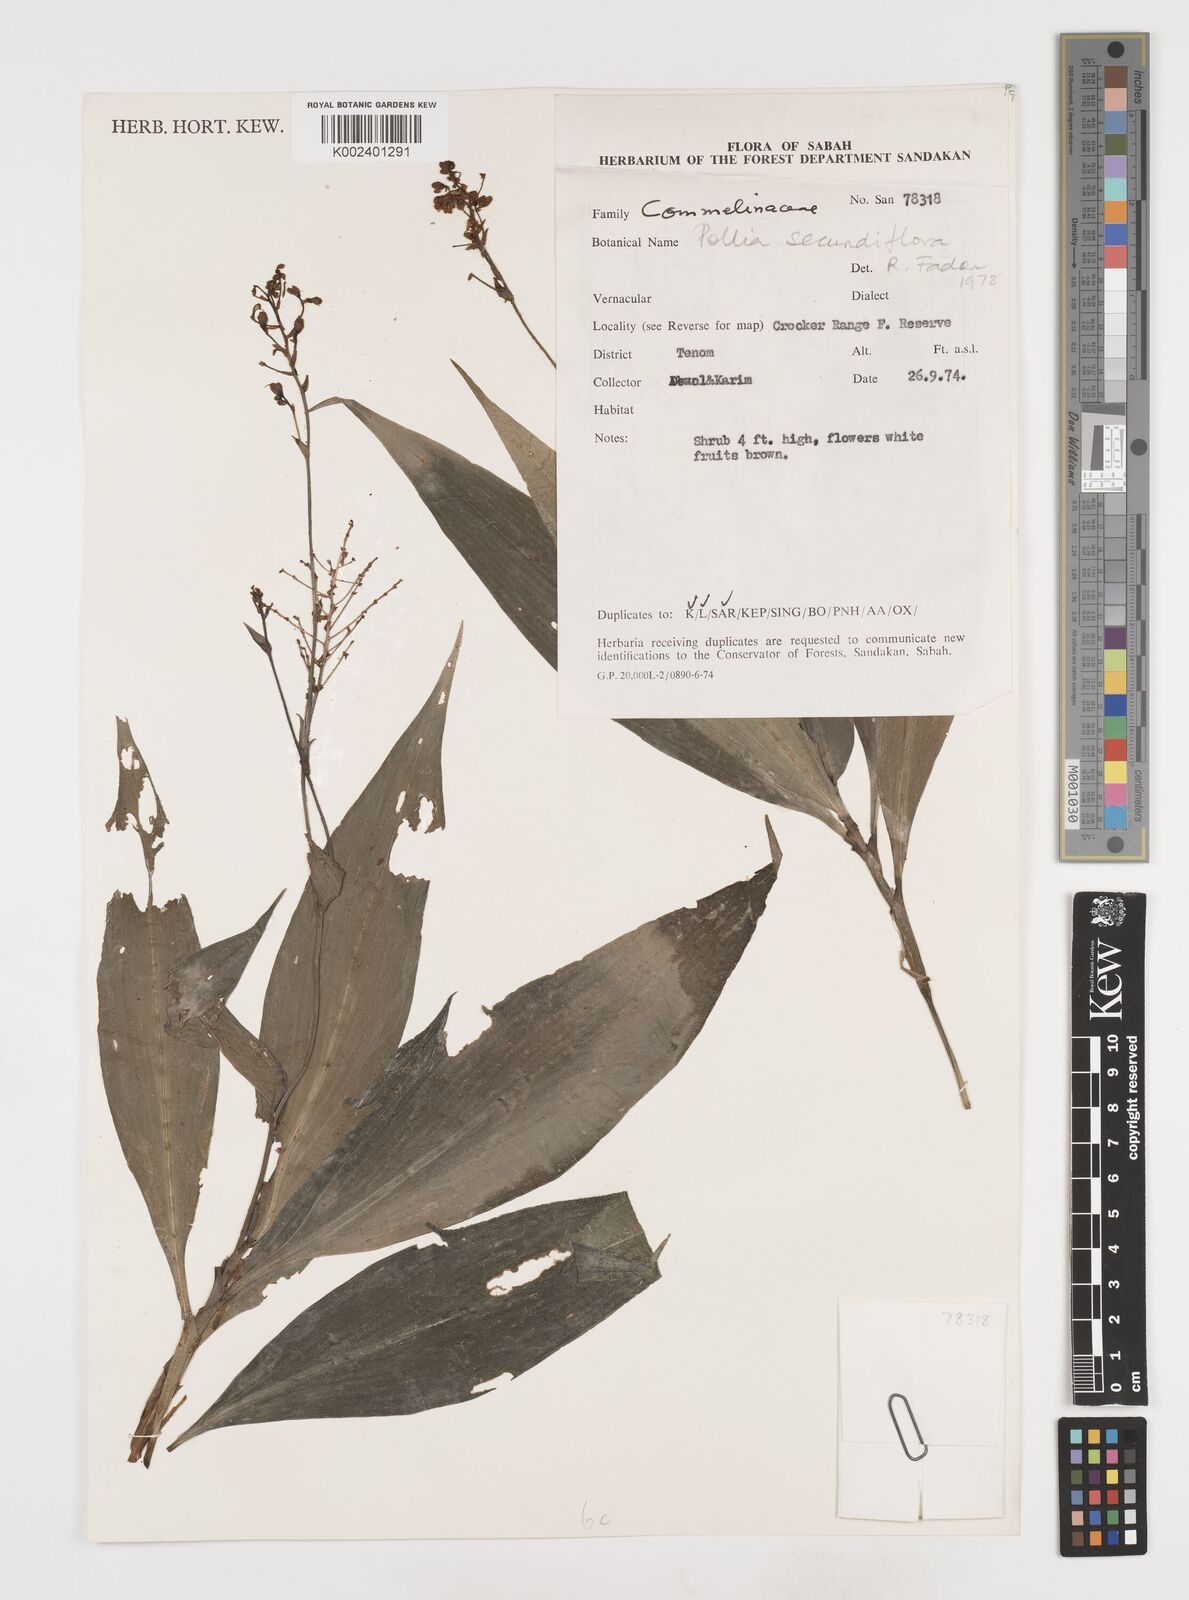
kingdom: Plantae
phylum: Tracheophyta
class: Liliopsida
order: Commelinales
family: Commelinaceae
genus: Pollia
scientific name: Pollia secundiflora
